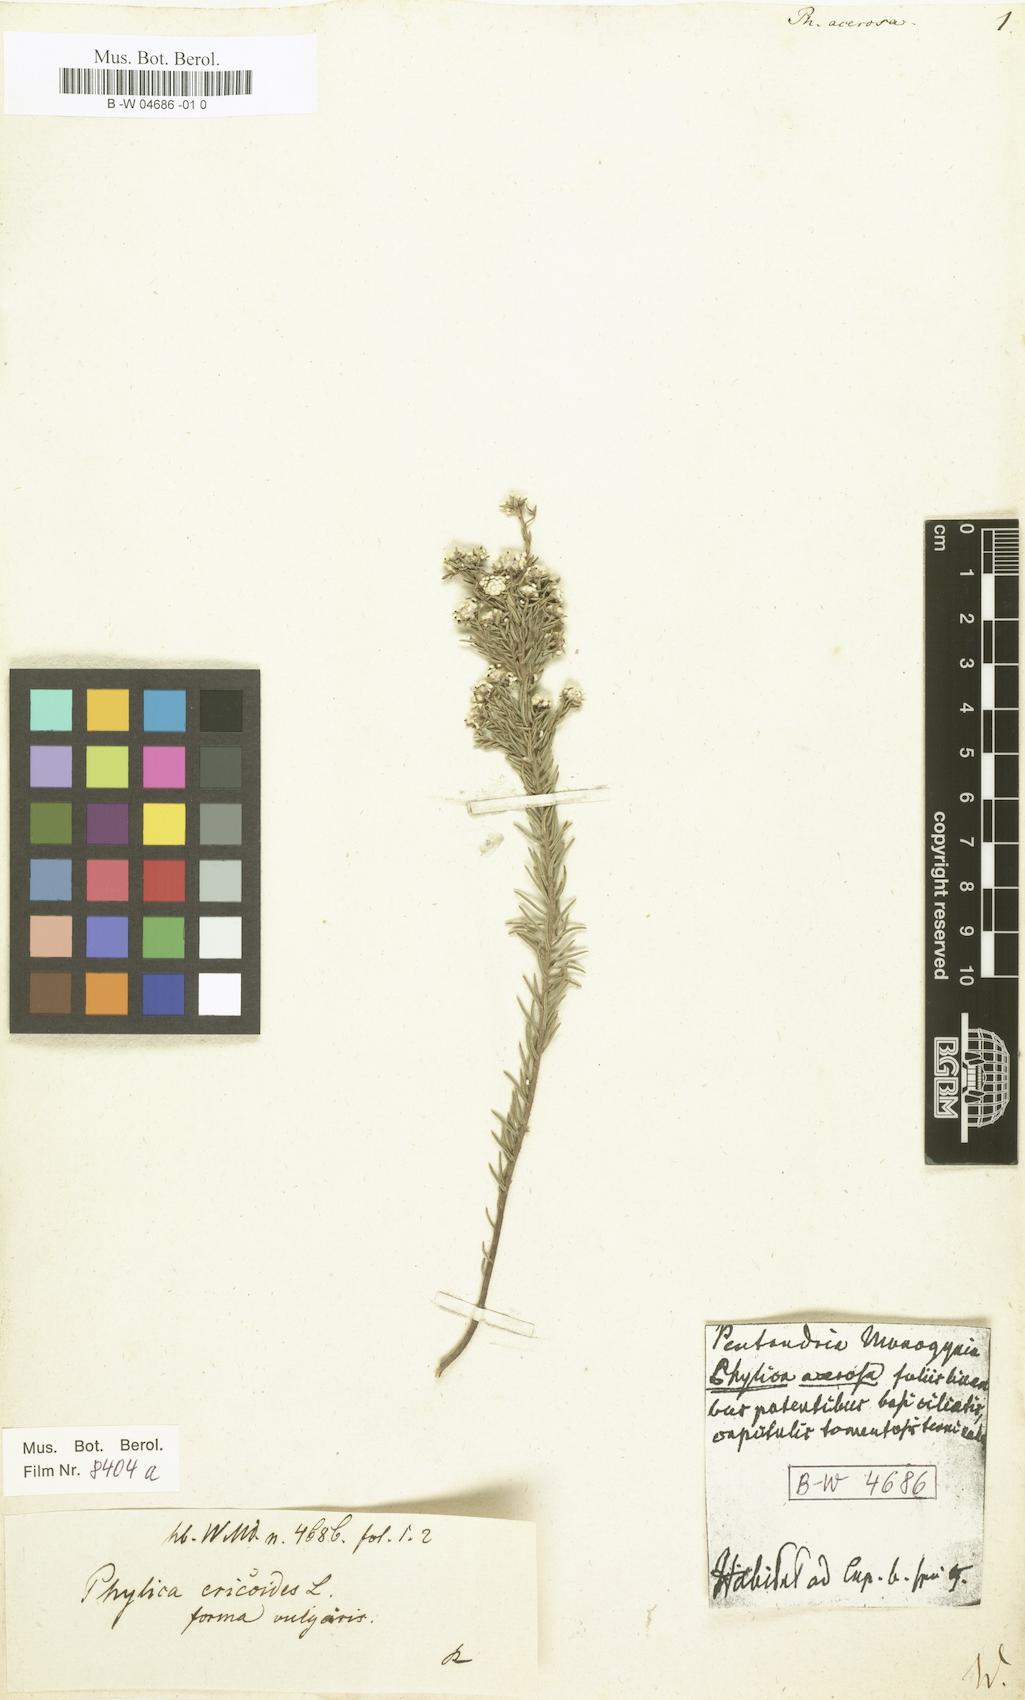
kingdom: Plantae
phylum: Tracheophyta
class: Magnoliopsida
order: Rosales
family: Rhamnaceae
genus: Phylica
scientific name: Phylica
